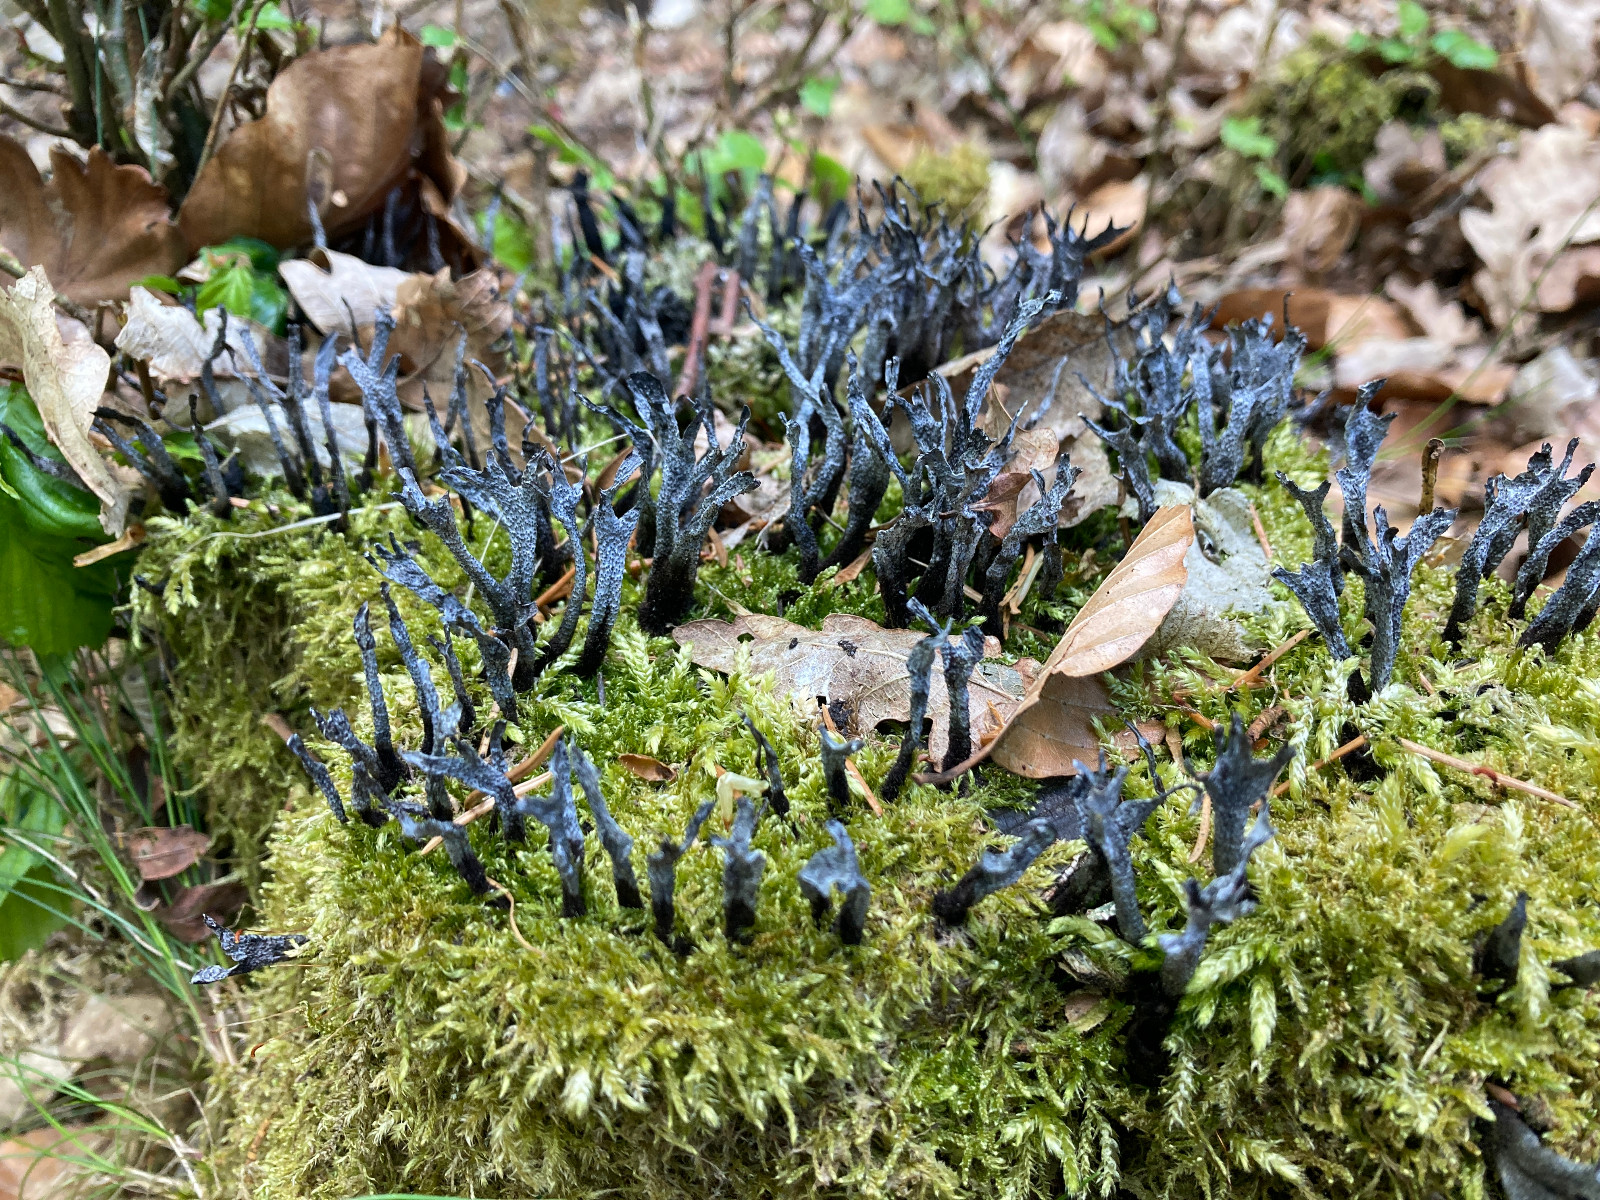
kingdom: Fungi
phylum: Ascomycota
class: Sordariomycetes
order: Xylariales
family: Xylariaceae
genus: Xylaria
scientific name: Xylaria hypoxylon
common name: grenet stødsvamp
